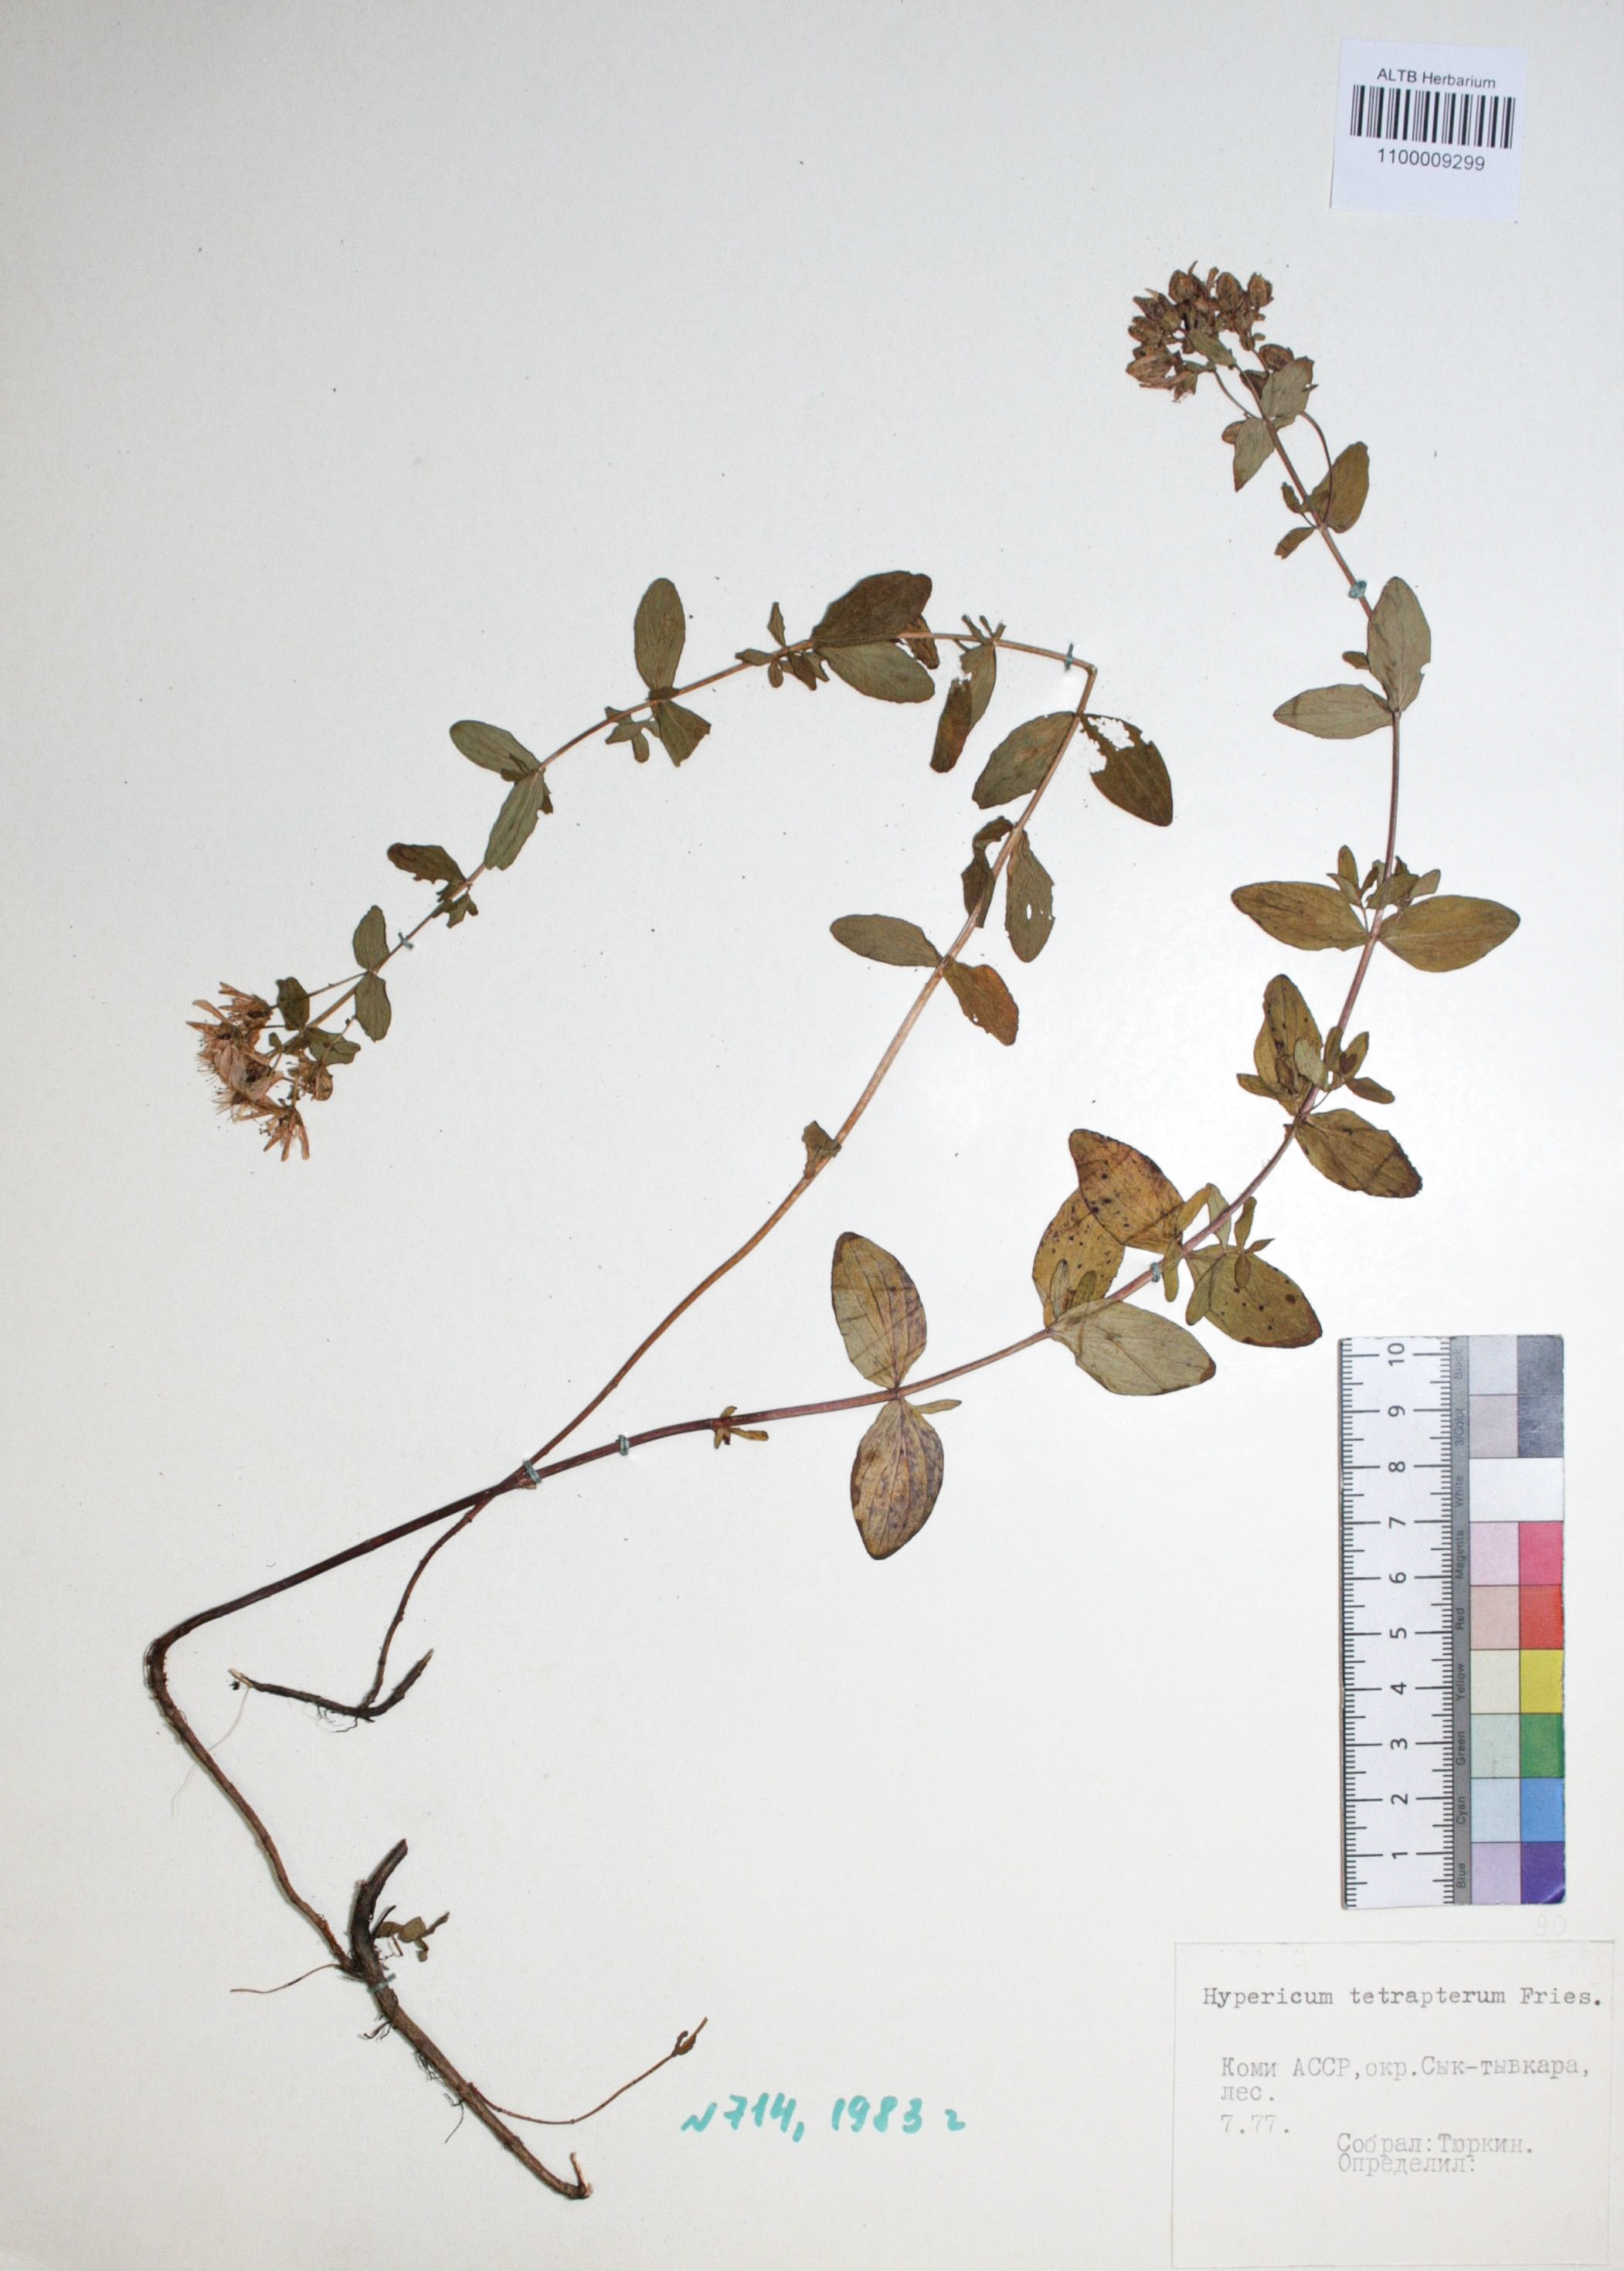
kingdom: Plantae
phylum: Tracheophyta
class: Magnoliopsida
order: Malpighiales
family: Hypericaceae
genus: Hypericum
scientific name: Hypericum tetrapterum
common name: Square-stalked st. john's-wort
